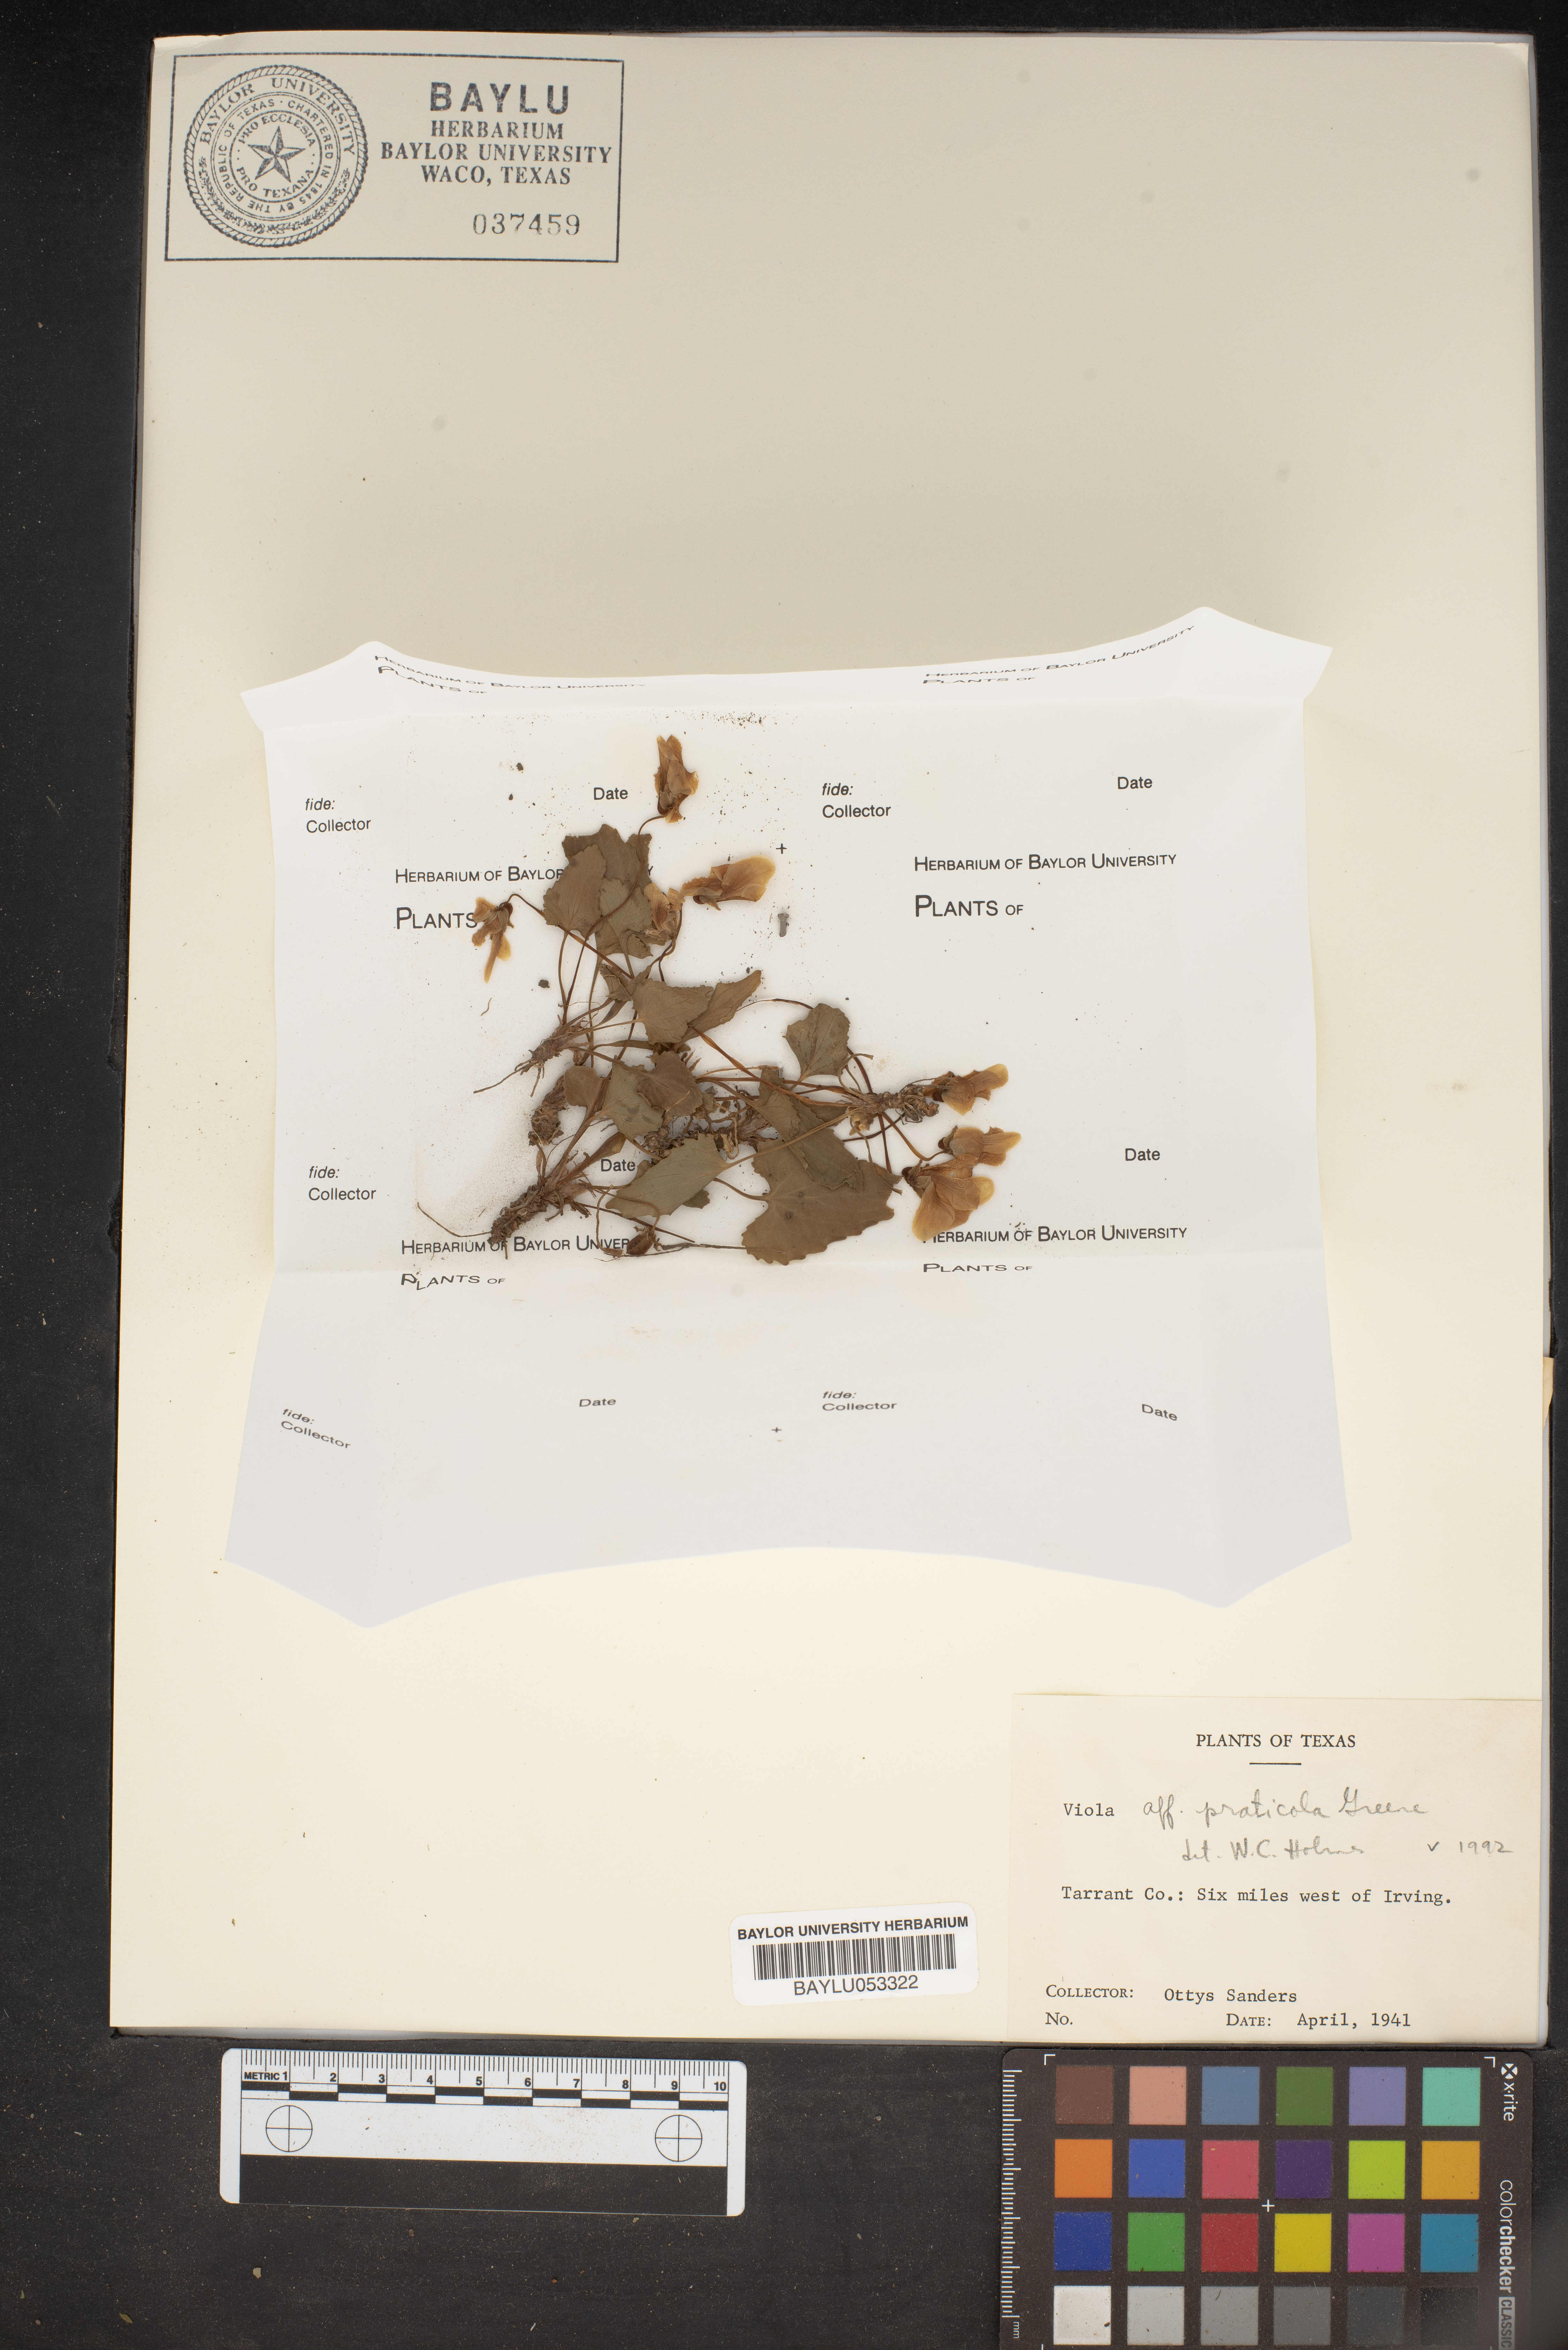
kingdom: Plantae
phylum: Tracheophyta
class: Magnoliopsida
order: Malpighiales
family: Violaceae
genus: Viola
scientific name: Viola pratincola
